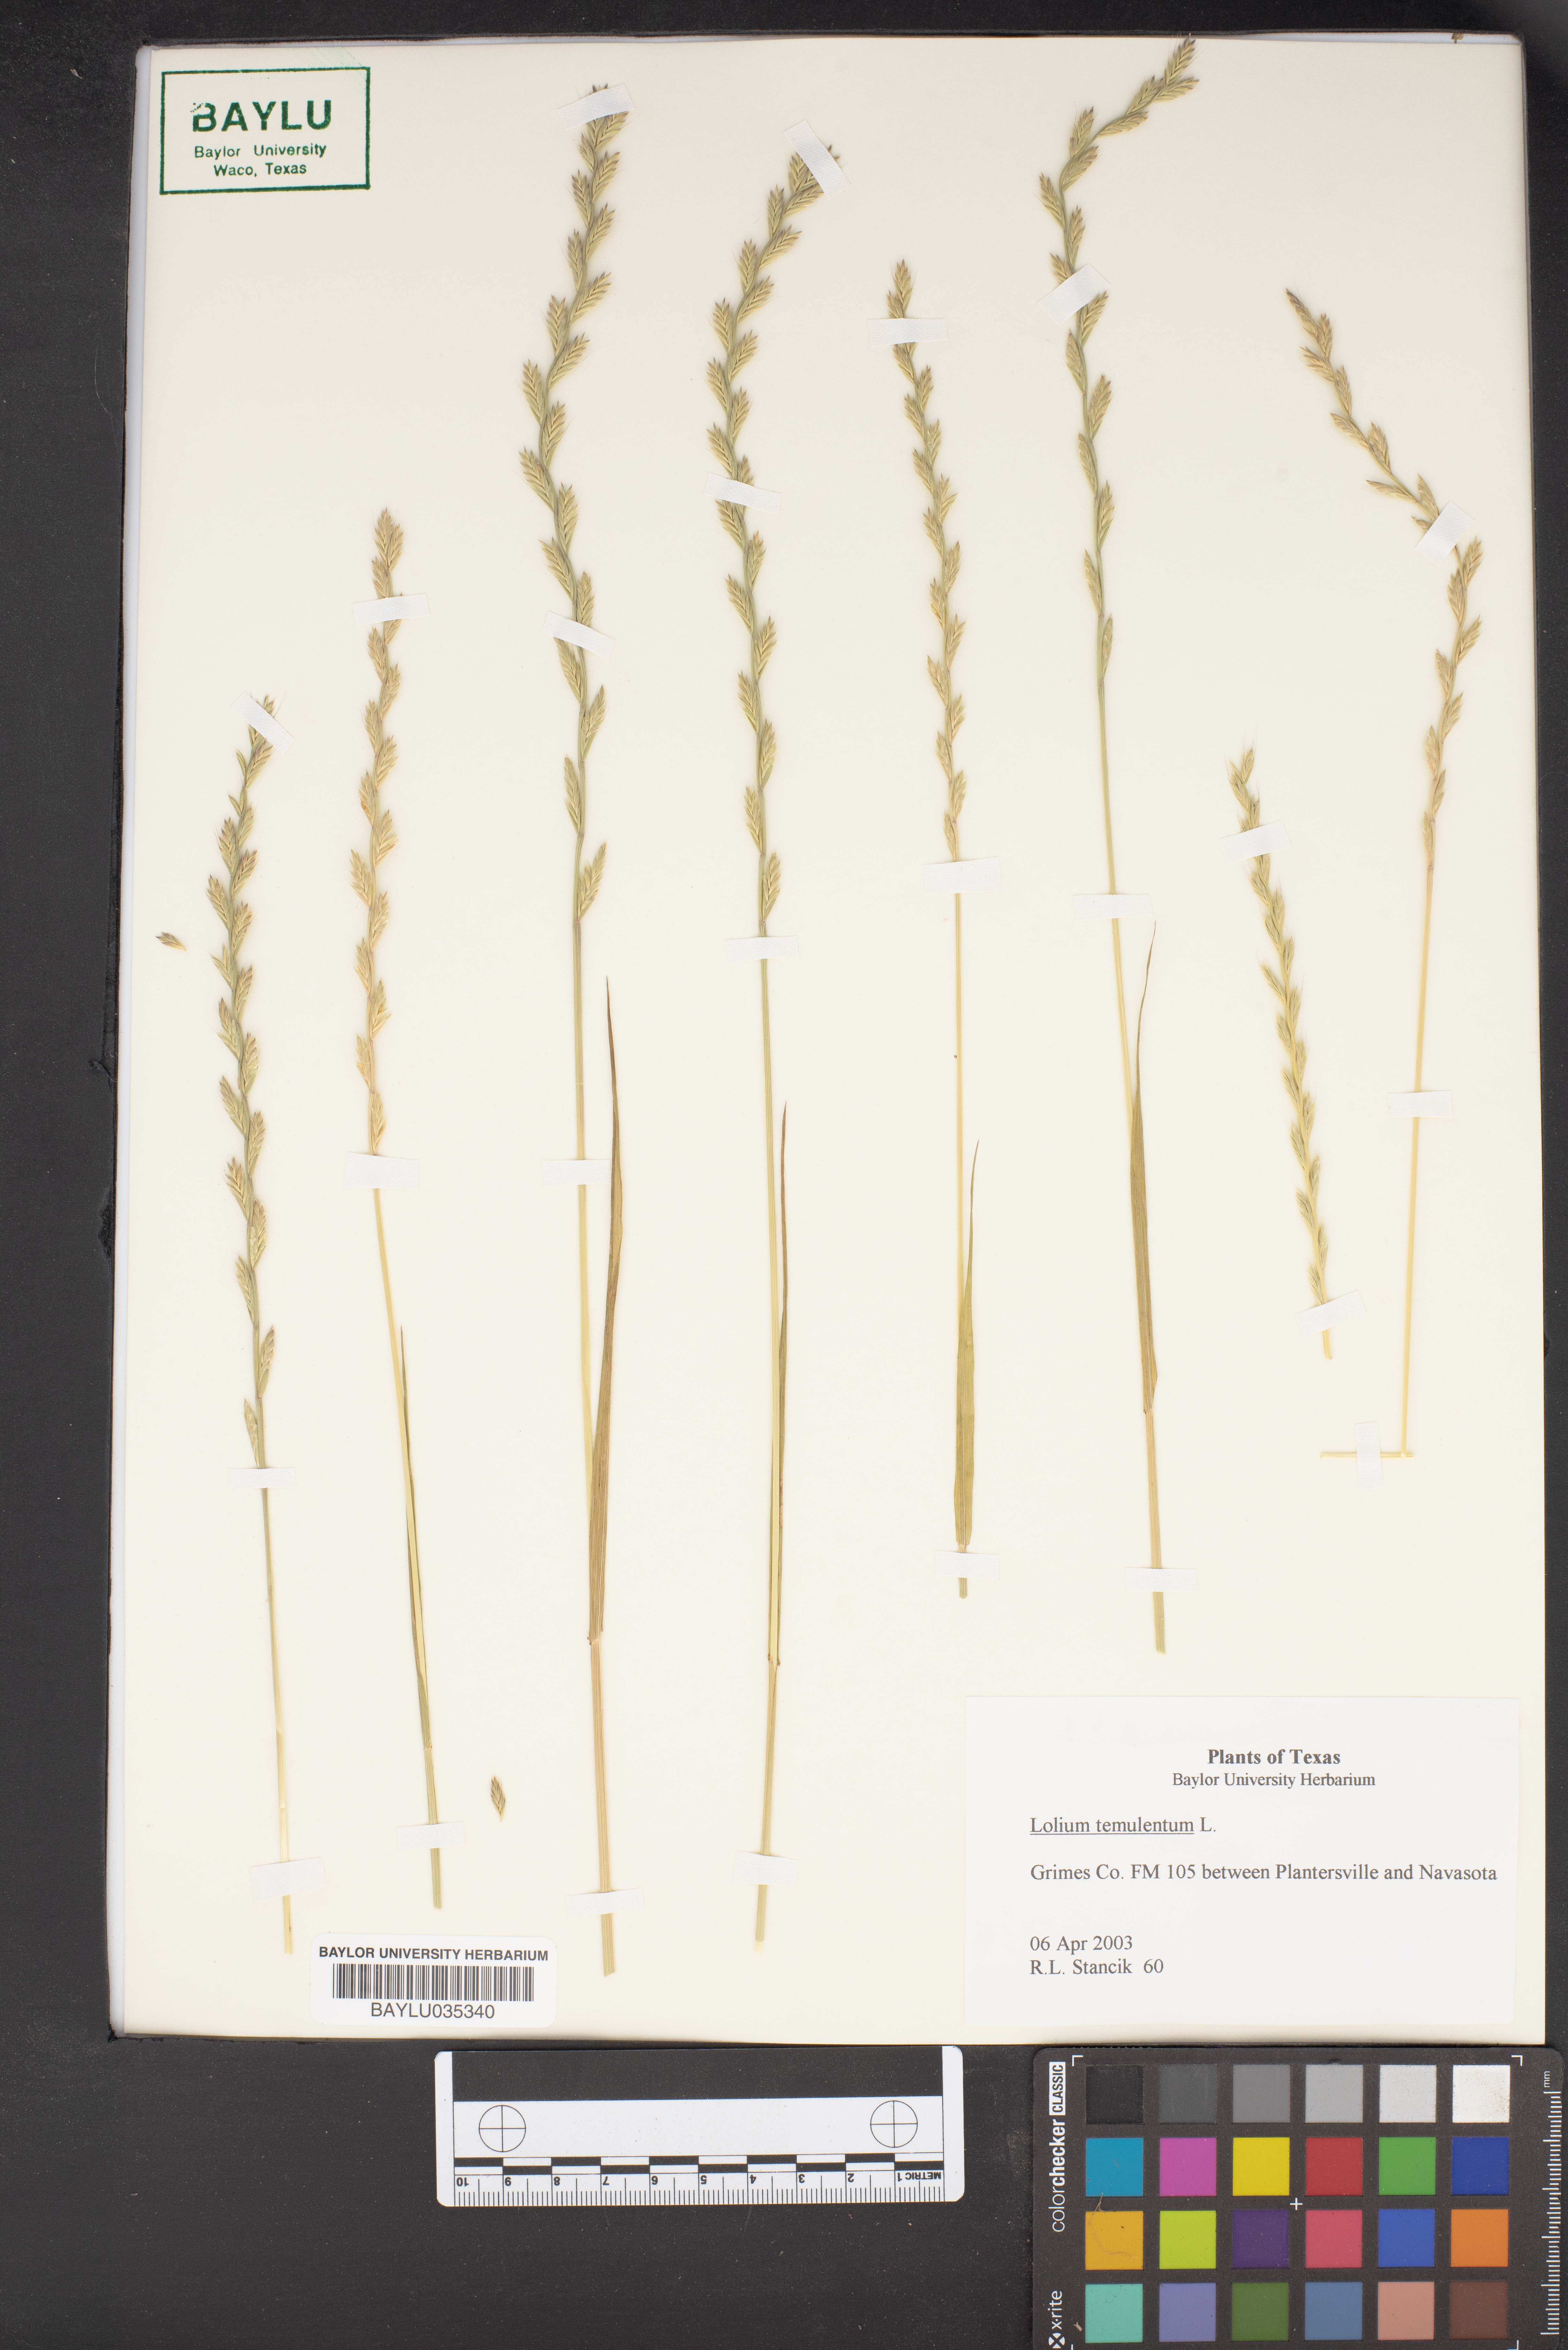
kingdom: Plantae
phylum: Tracheophyta
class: Liliopsida
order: Poales
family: Poaceae
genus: Lolium
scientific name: Lolium temulentum
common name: Darnel
